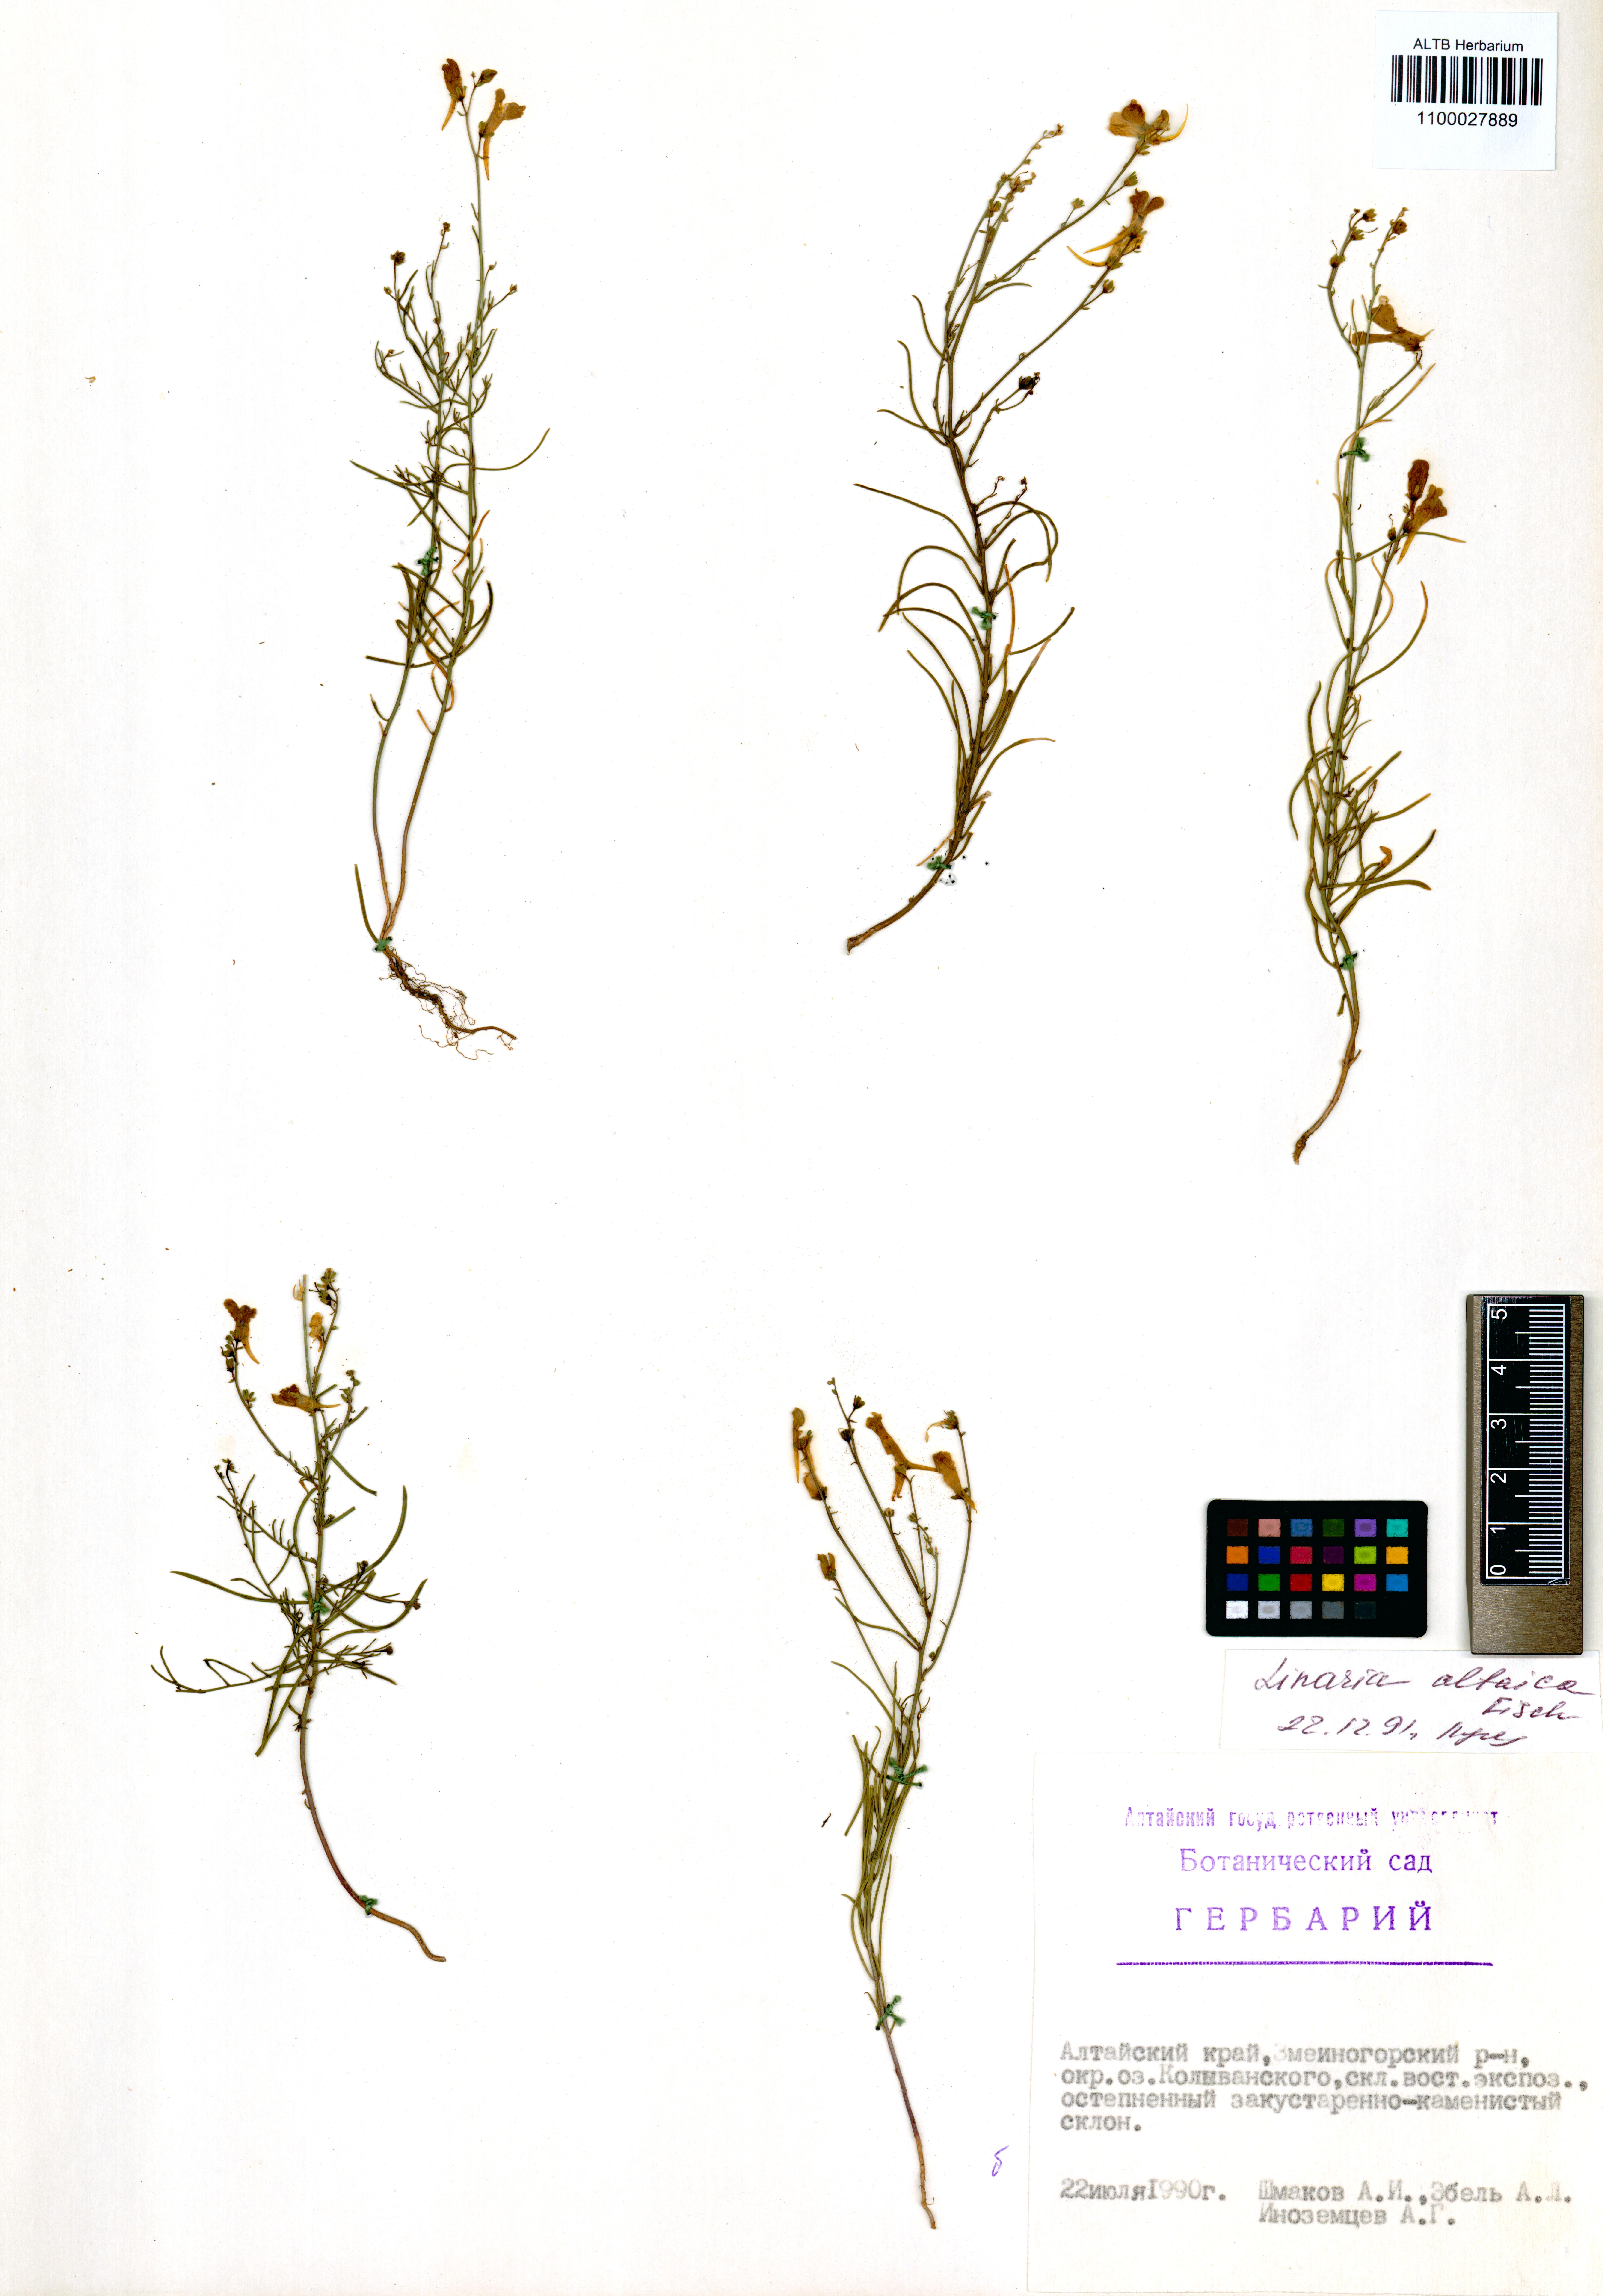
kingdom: Plantae
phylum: Tracheophyta
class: Magnoliopsida
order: Lamiales
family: Plantaginaceae
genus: Linaria
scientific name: Linaria altaica
